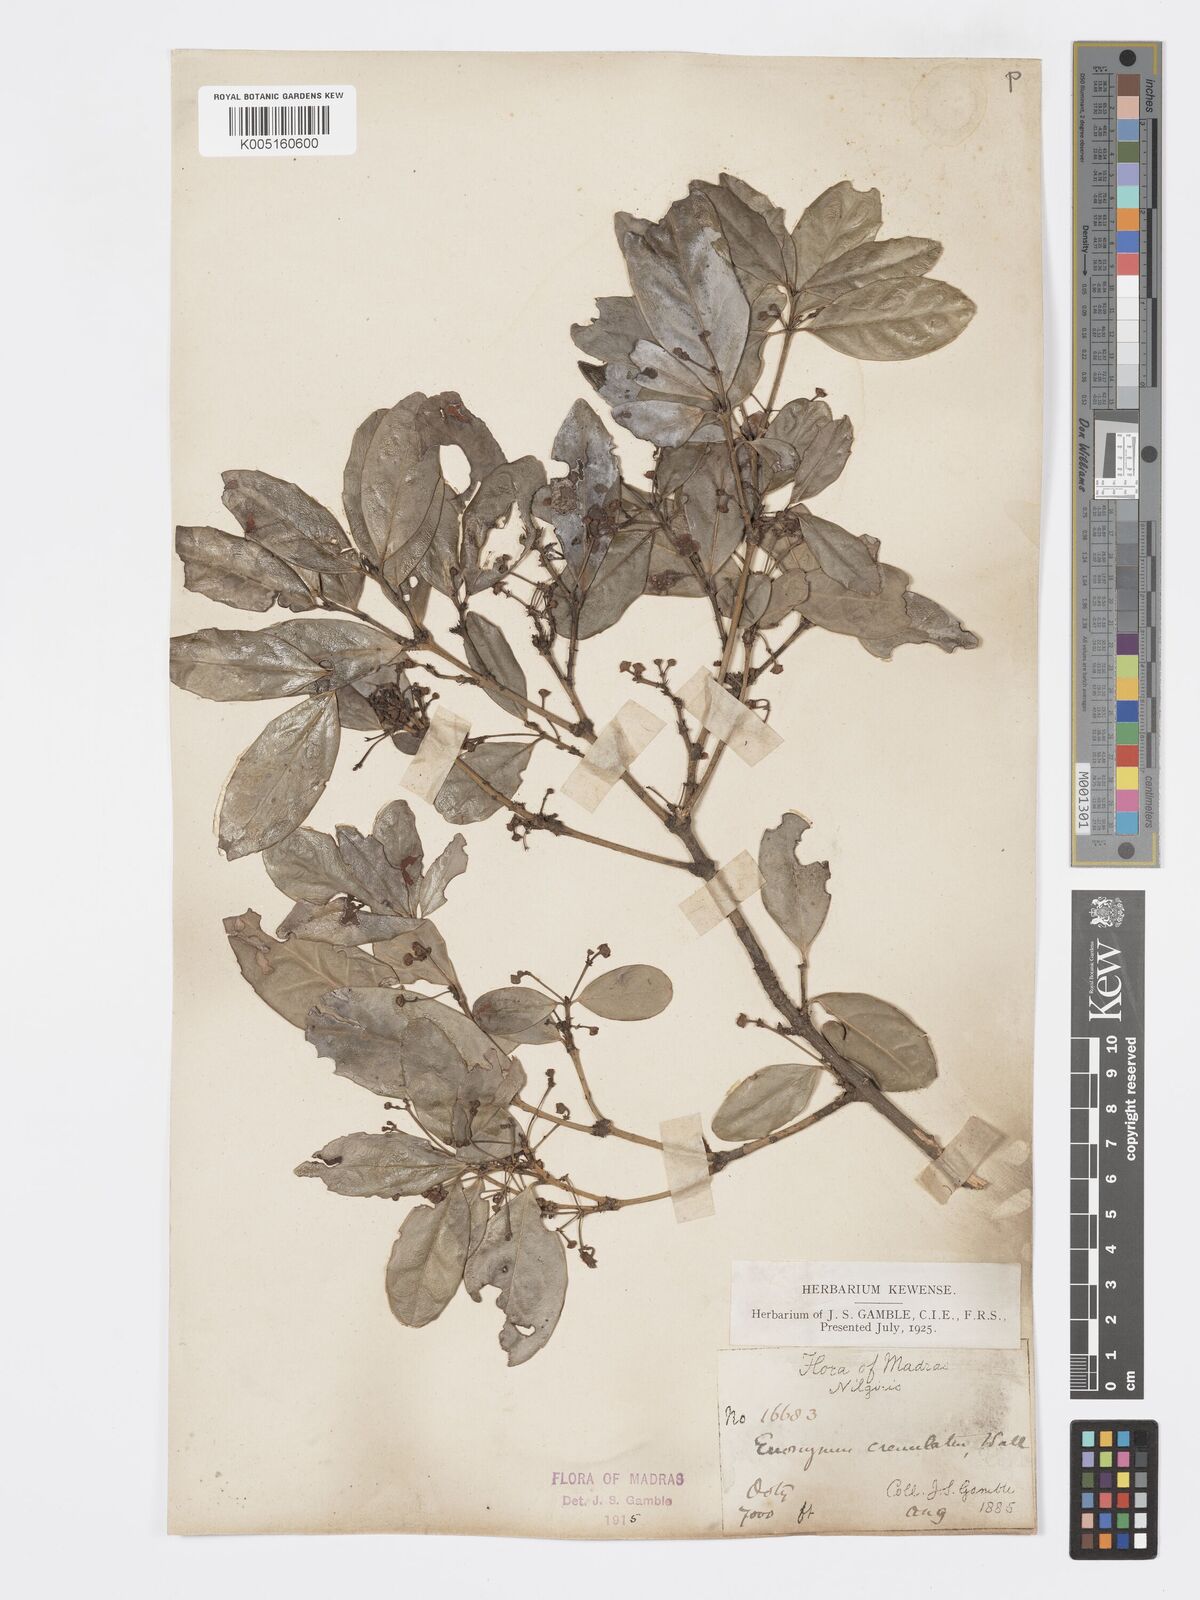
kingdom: Plantae
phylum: Tracheophyta
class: Magnoliopsida
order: Celastrales
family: Celastraceae
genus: Euonymus
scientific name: Euonymus crenulatus
